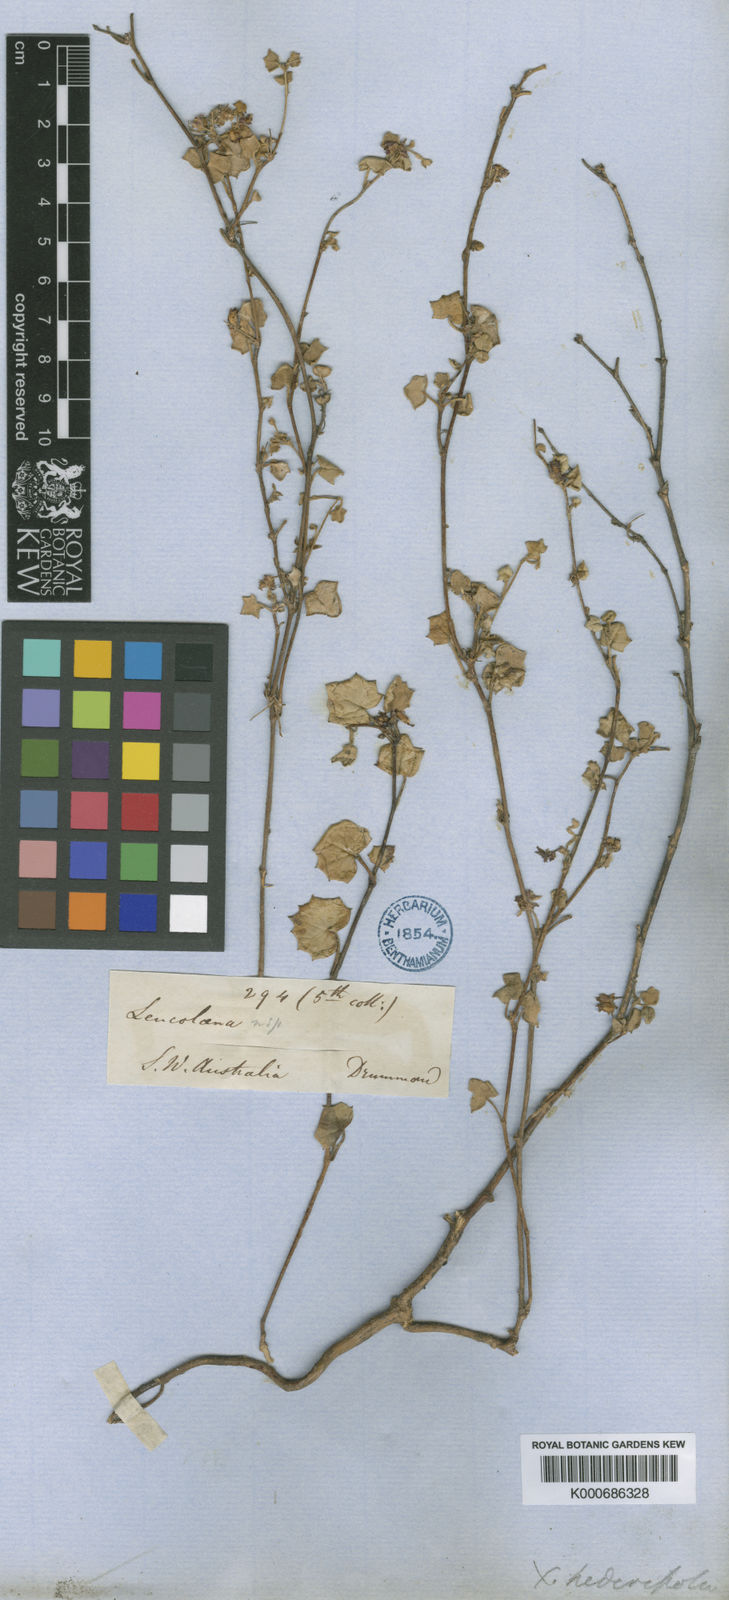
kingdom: Plantae
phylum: Tracheophyta
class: Magnoliopsida
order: Apiales
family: Apiaceae
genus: Xanthosia
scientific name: Xanthosia hederifolia
